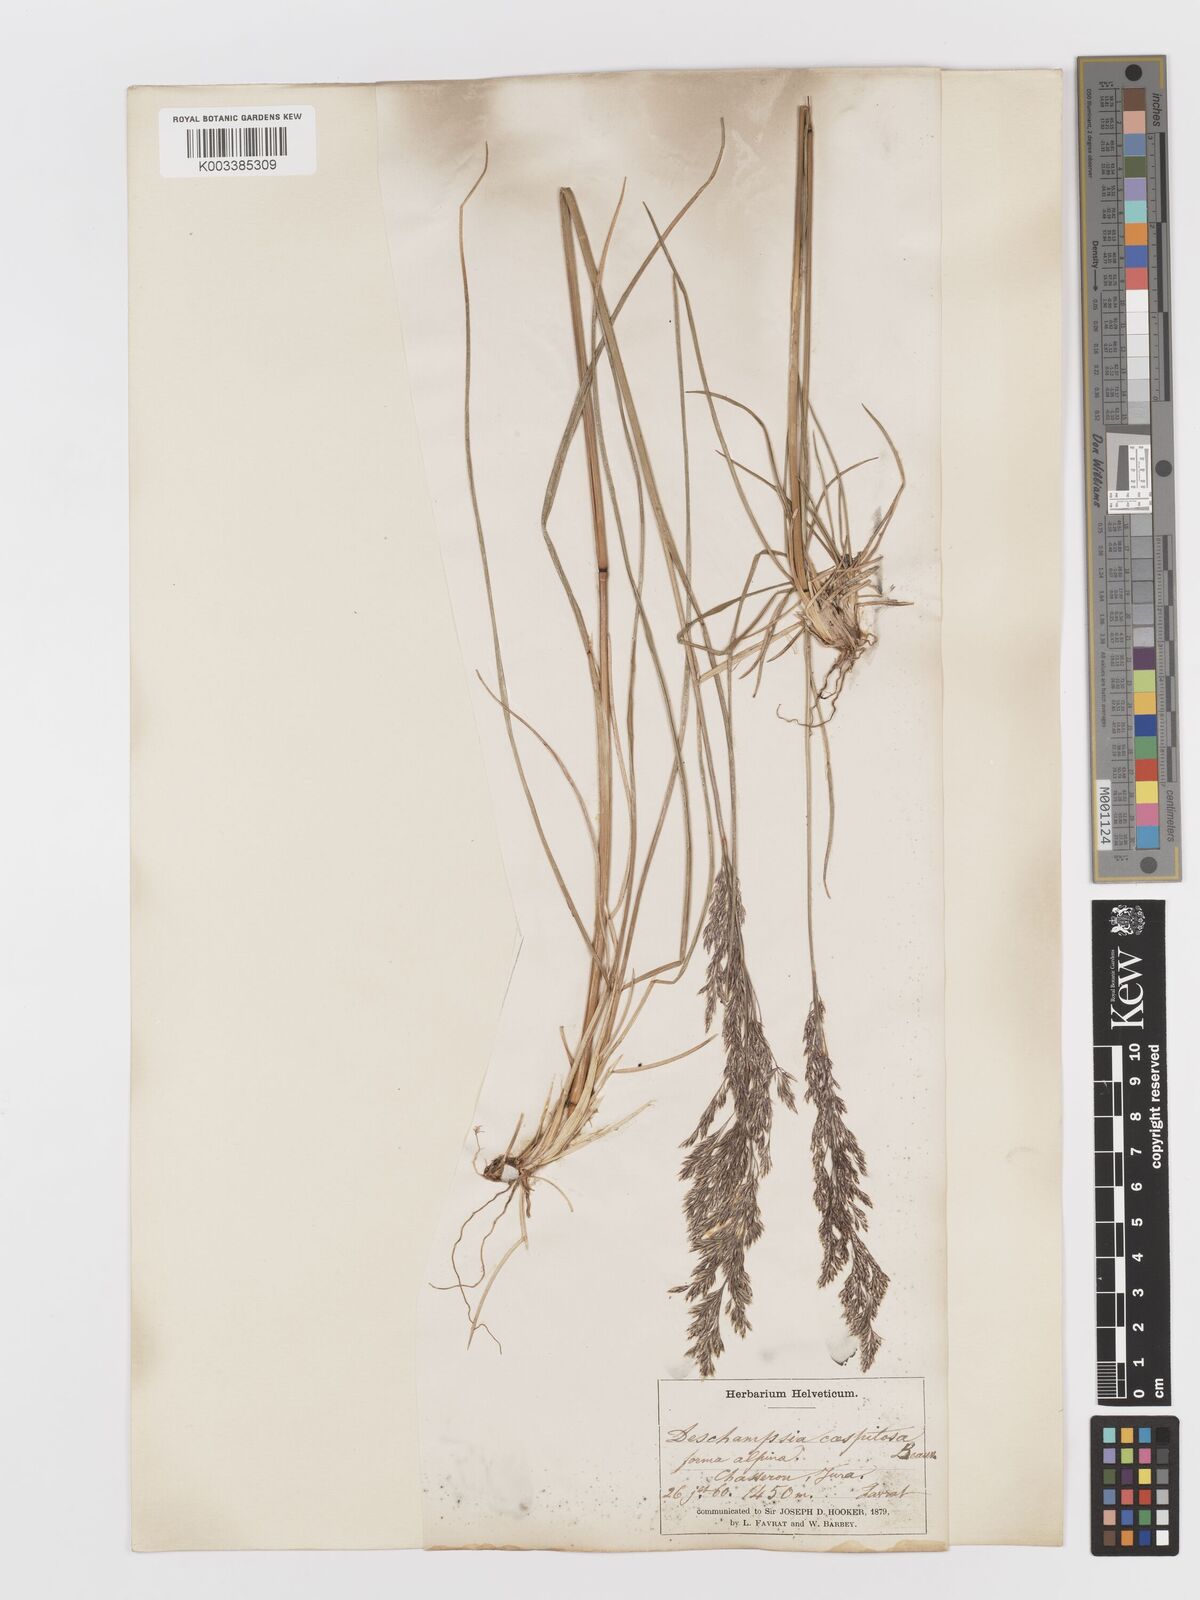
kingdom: Plantae
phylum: Tracheophyta
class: Liliopsida
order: Poales
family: Poaceae
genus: Deschampsia
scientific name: Deschampsia cespitosa
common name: Tufted hair-grass
